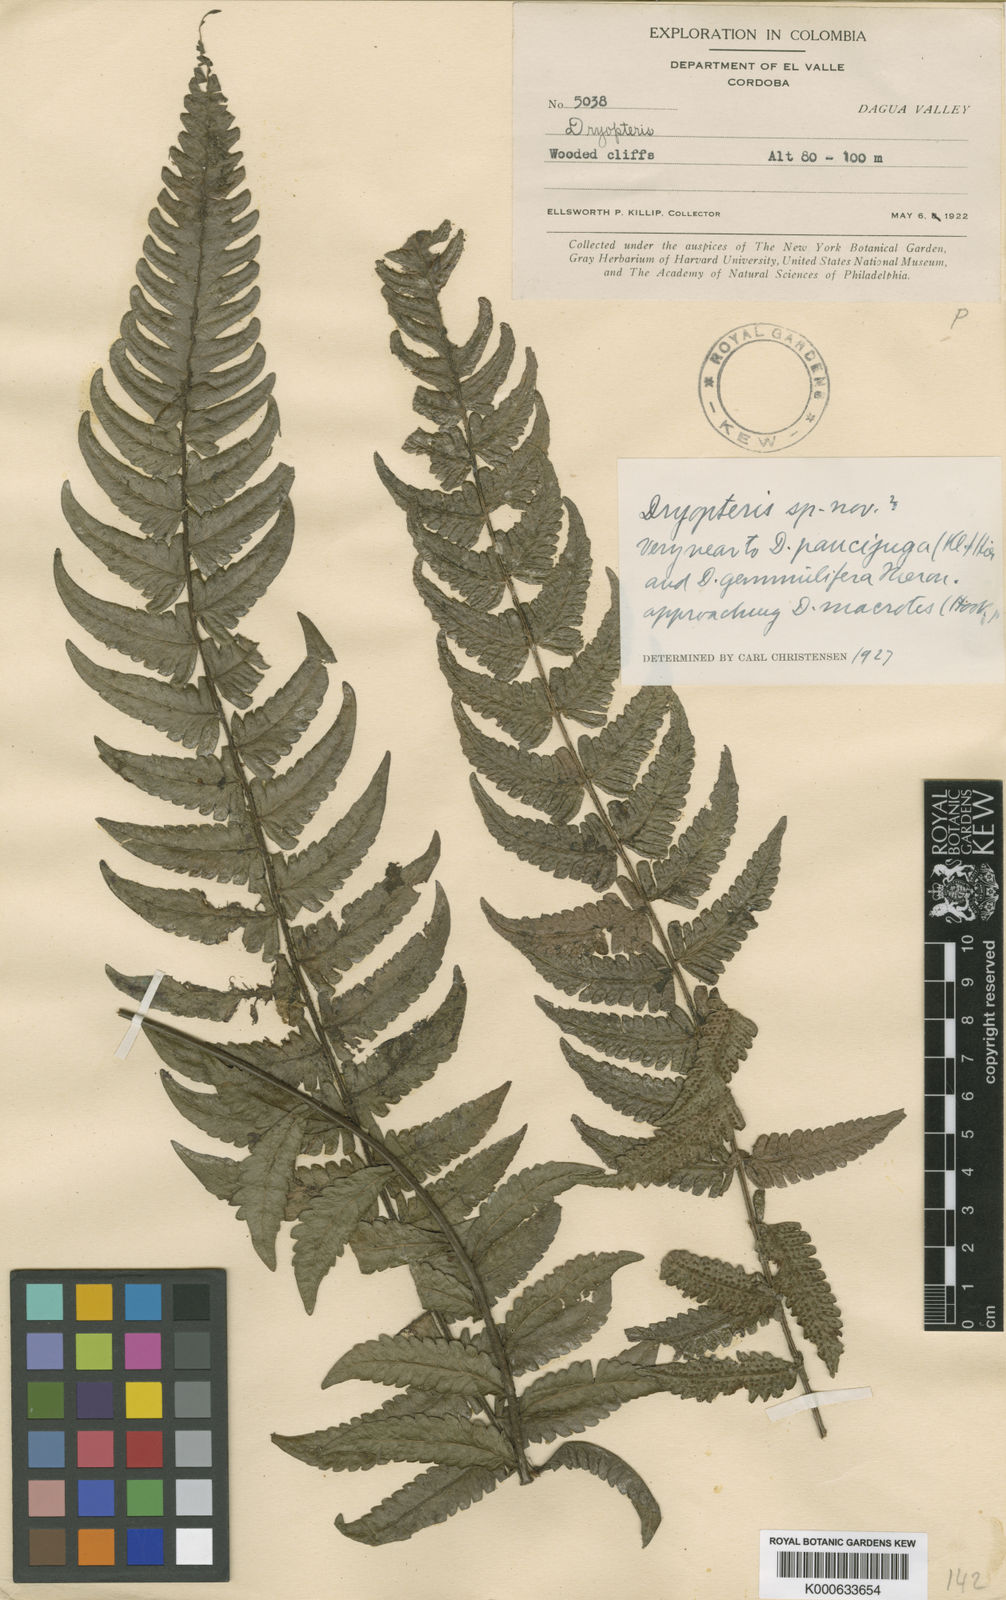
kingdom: Plantae
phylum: Tracheophyta
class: Polypodiopsida
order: Polypodiales
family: Thelypteridaceae
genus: Goniopteris
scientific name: Goniopteris
